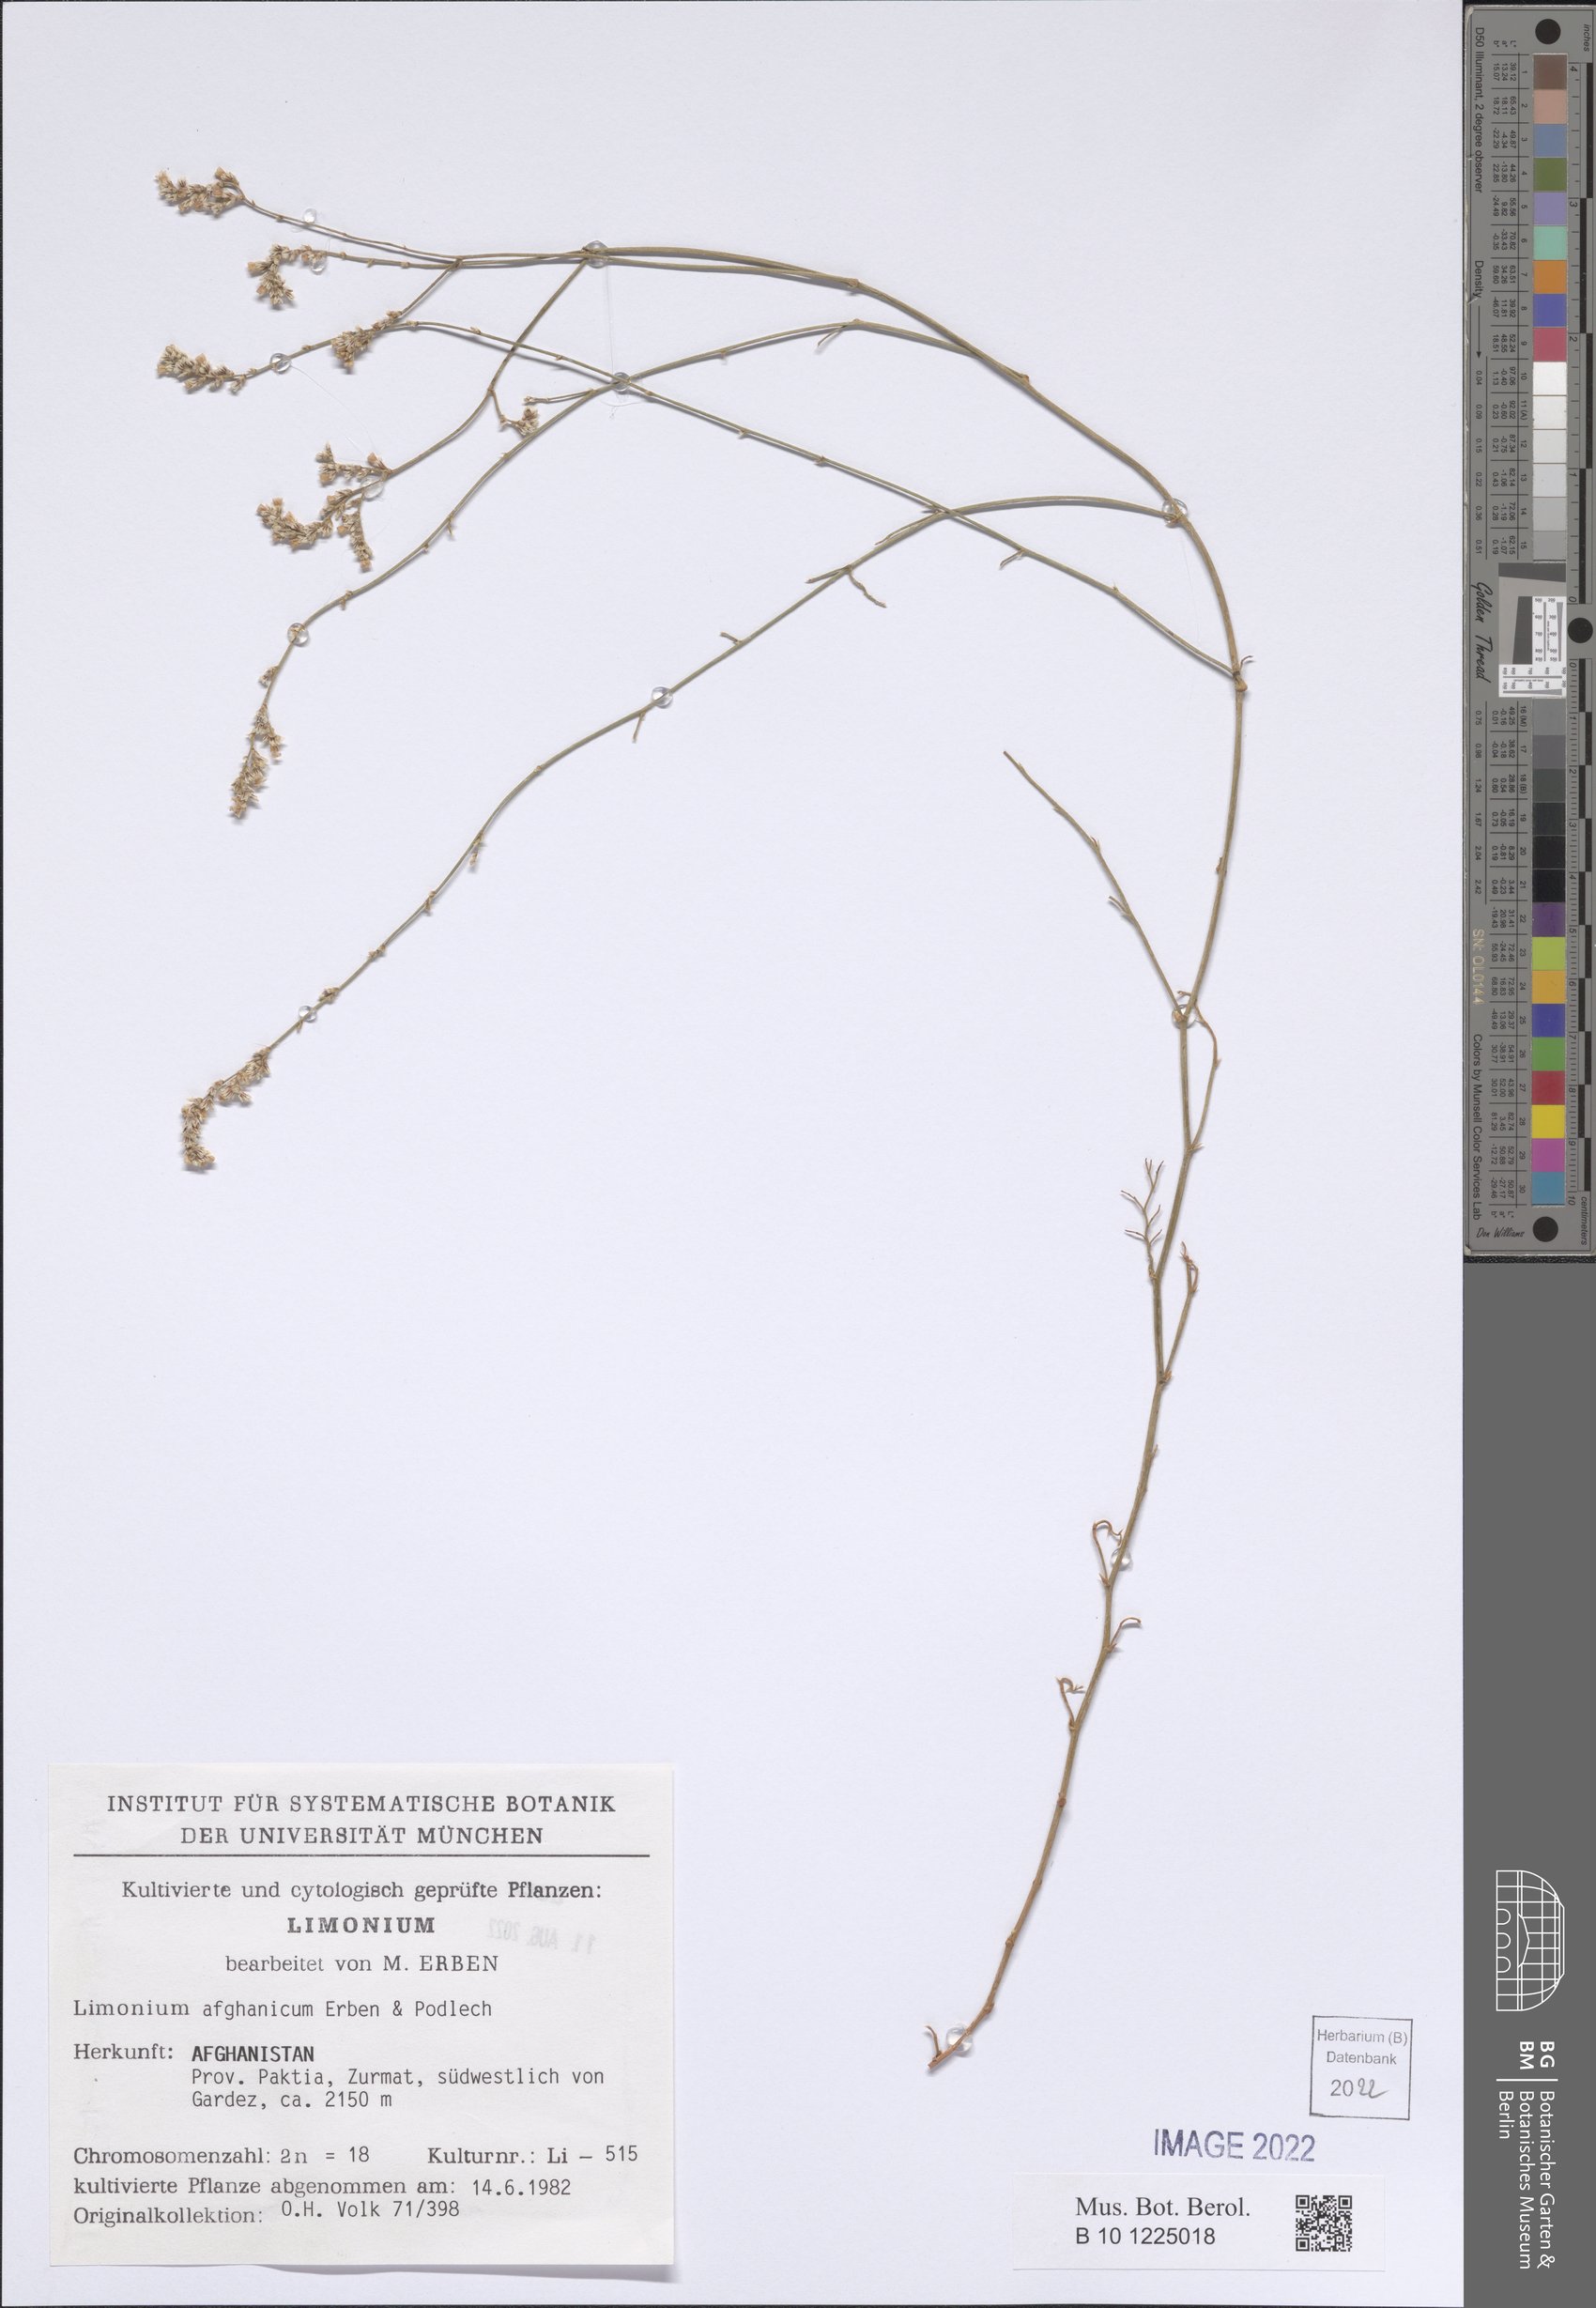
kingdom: Plantae
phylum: Tracheophyta
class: Magnoliopsida
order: Caryophyllales
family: Plumbaginaceae
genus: Limonium
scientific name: Limonium afghanicum
